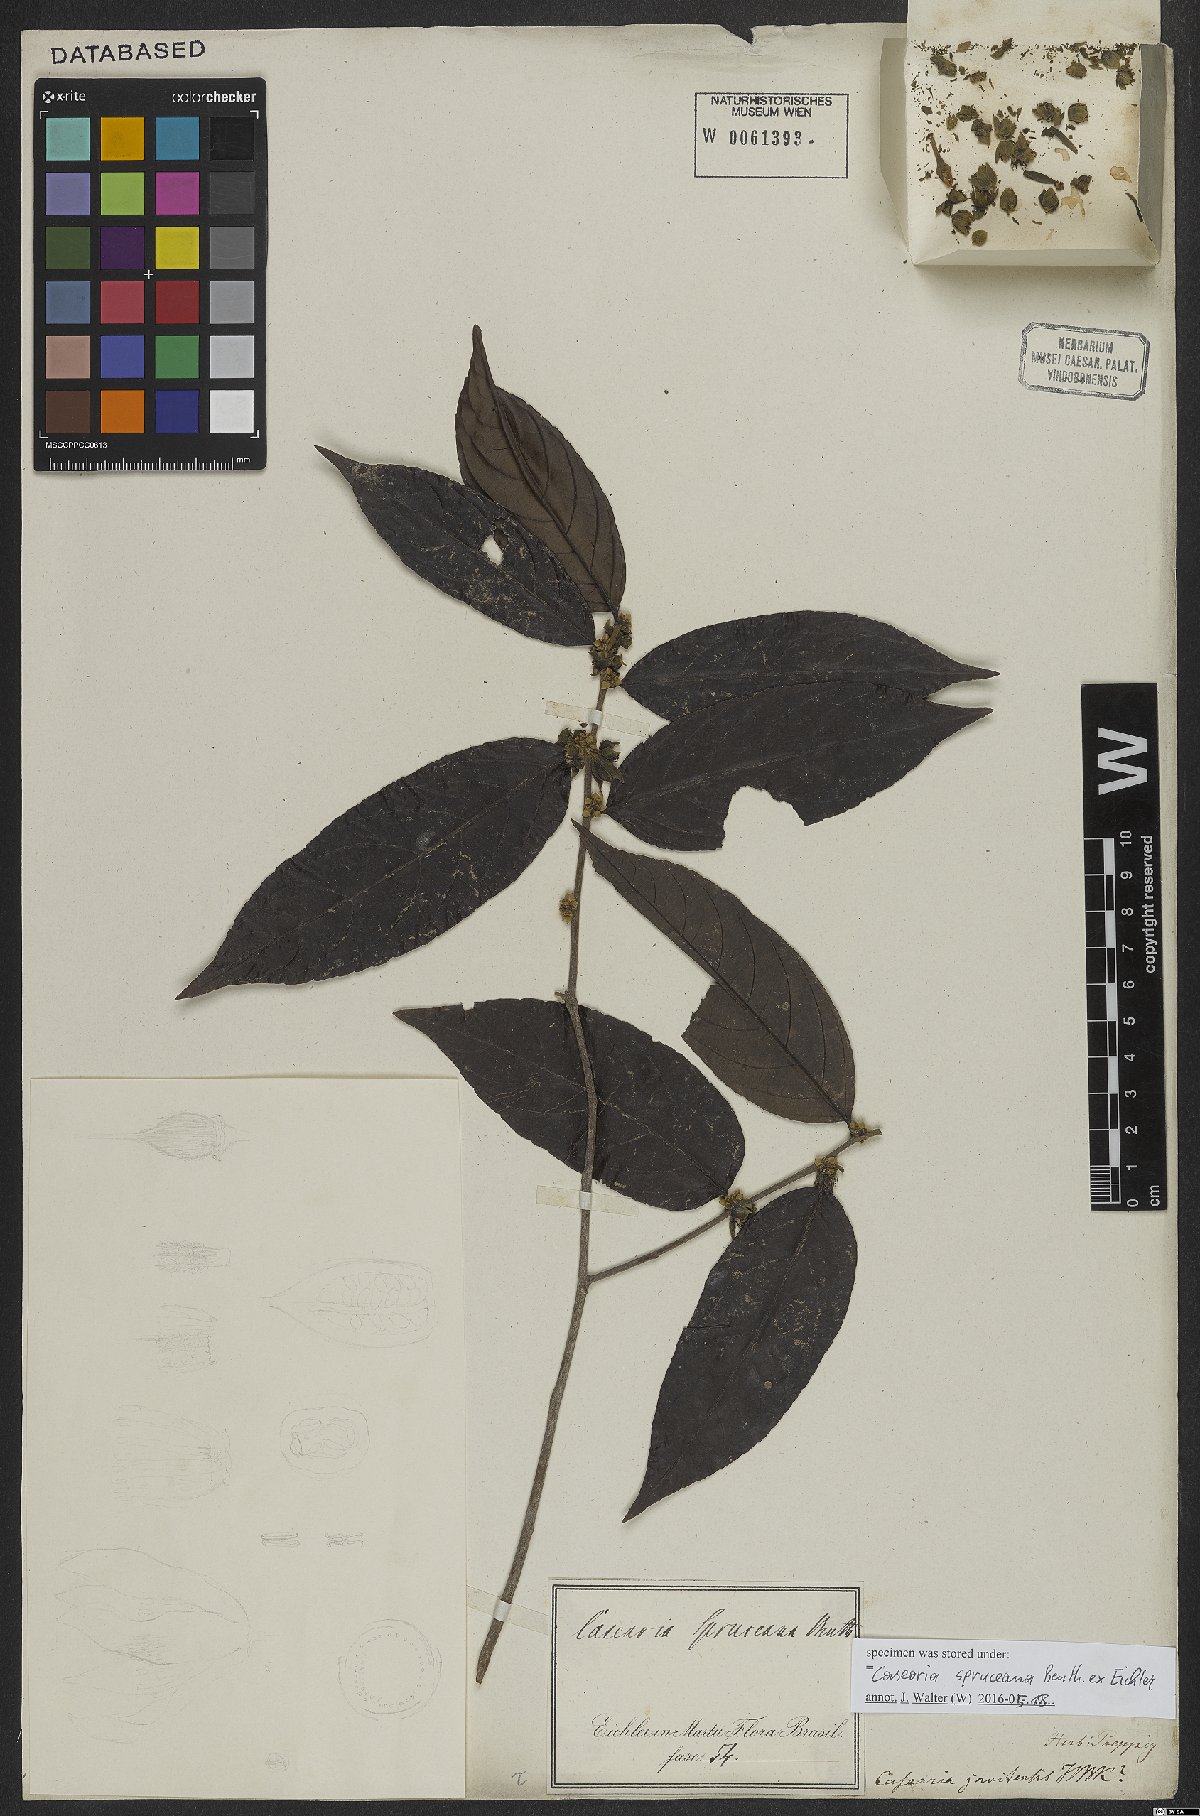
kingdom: Plantae
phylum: Tracheophyta
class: Magnoliopsida
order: Malpighiales
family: Salicaceae
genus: Piparea
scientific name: Piparea spruceana
